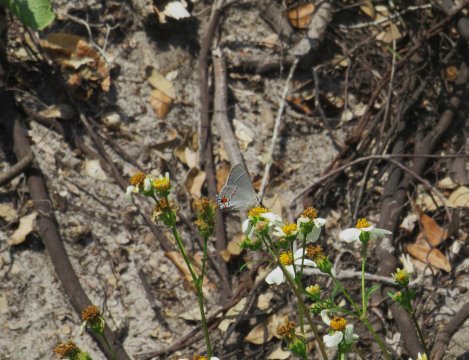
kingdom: Animalia
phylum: Arthropoda
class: Insecta
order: Lepidoptera
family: Lycaenidae
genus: Strymon
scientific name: Strymon melinus
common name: Gray Hairstreak
